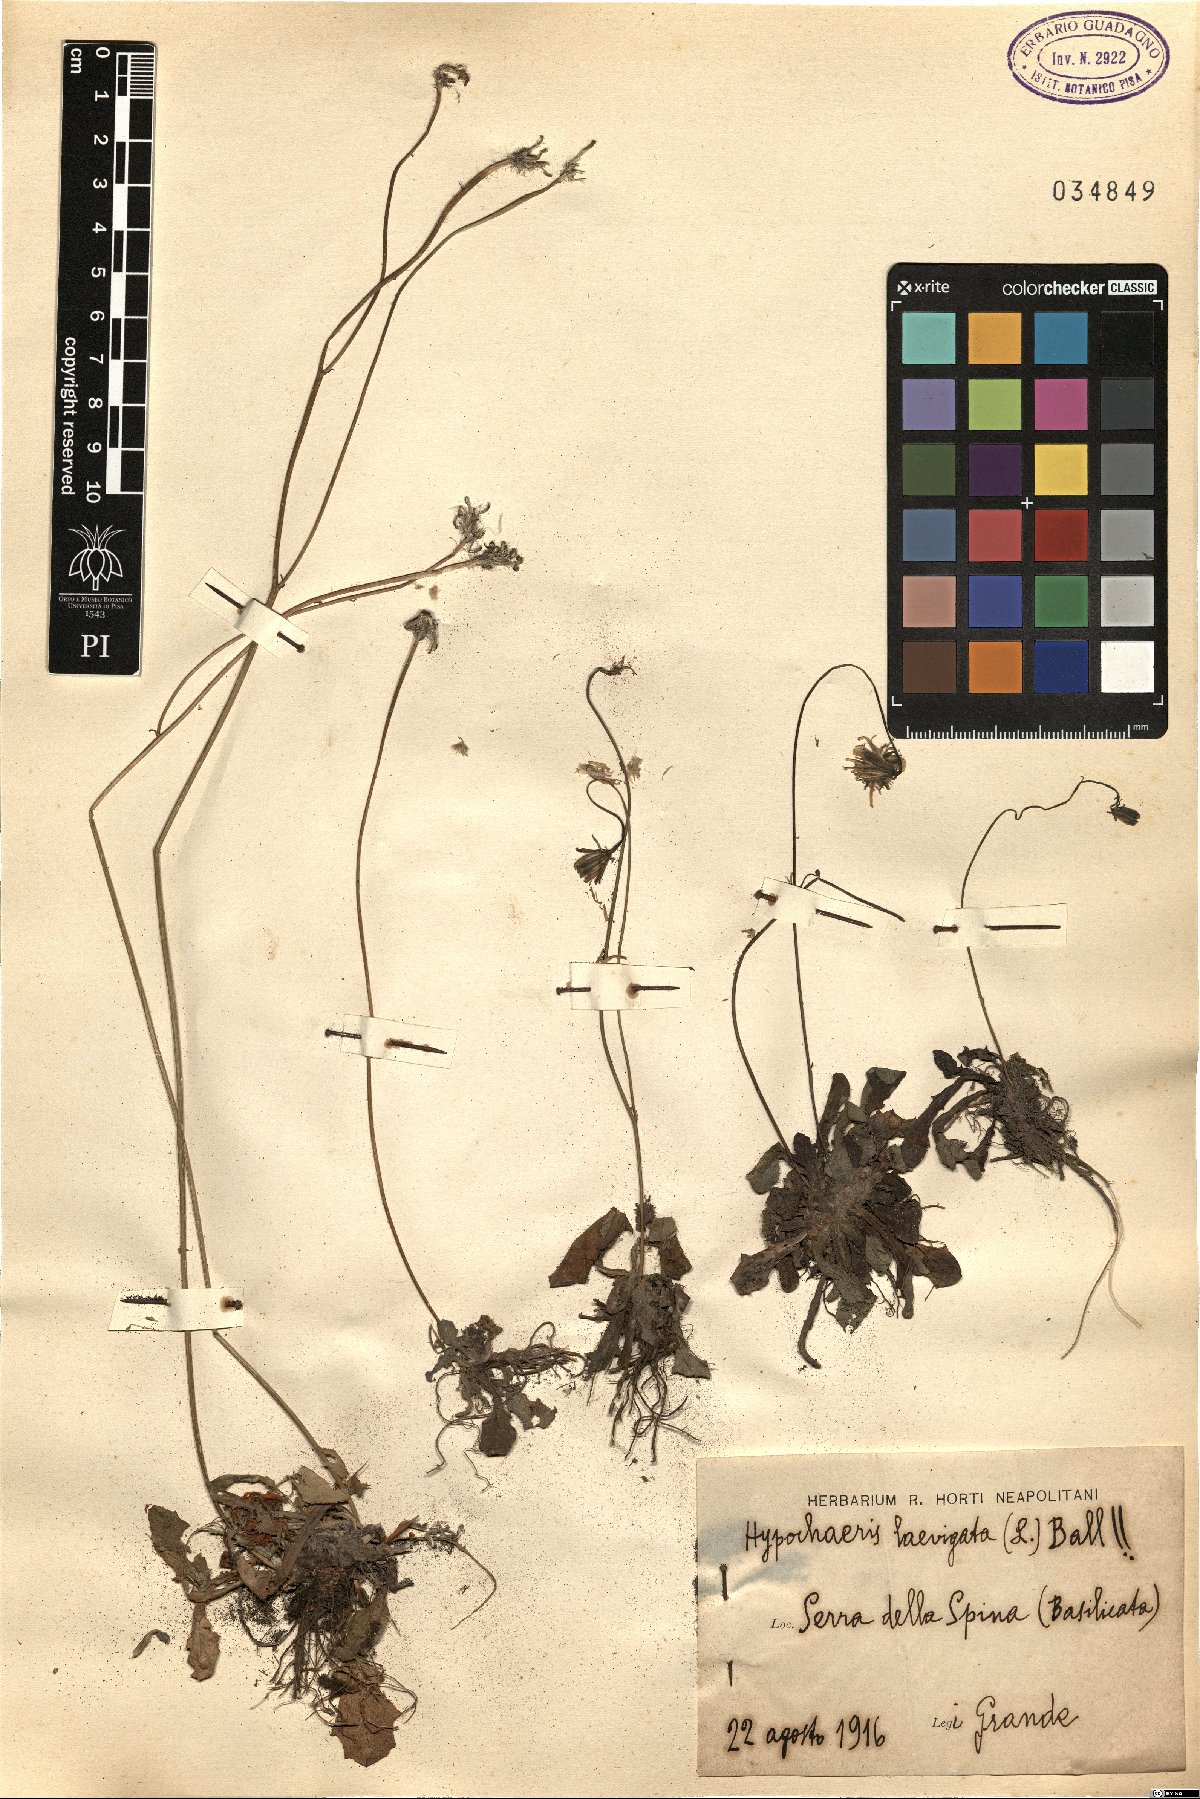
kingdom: Plantae
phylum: Tracheophyta
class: Magnoliopsida
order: Asterales
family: Asteraceae
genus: Achyrophorus
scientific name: Achyrophorus laevigatus
